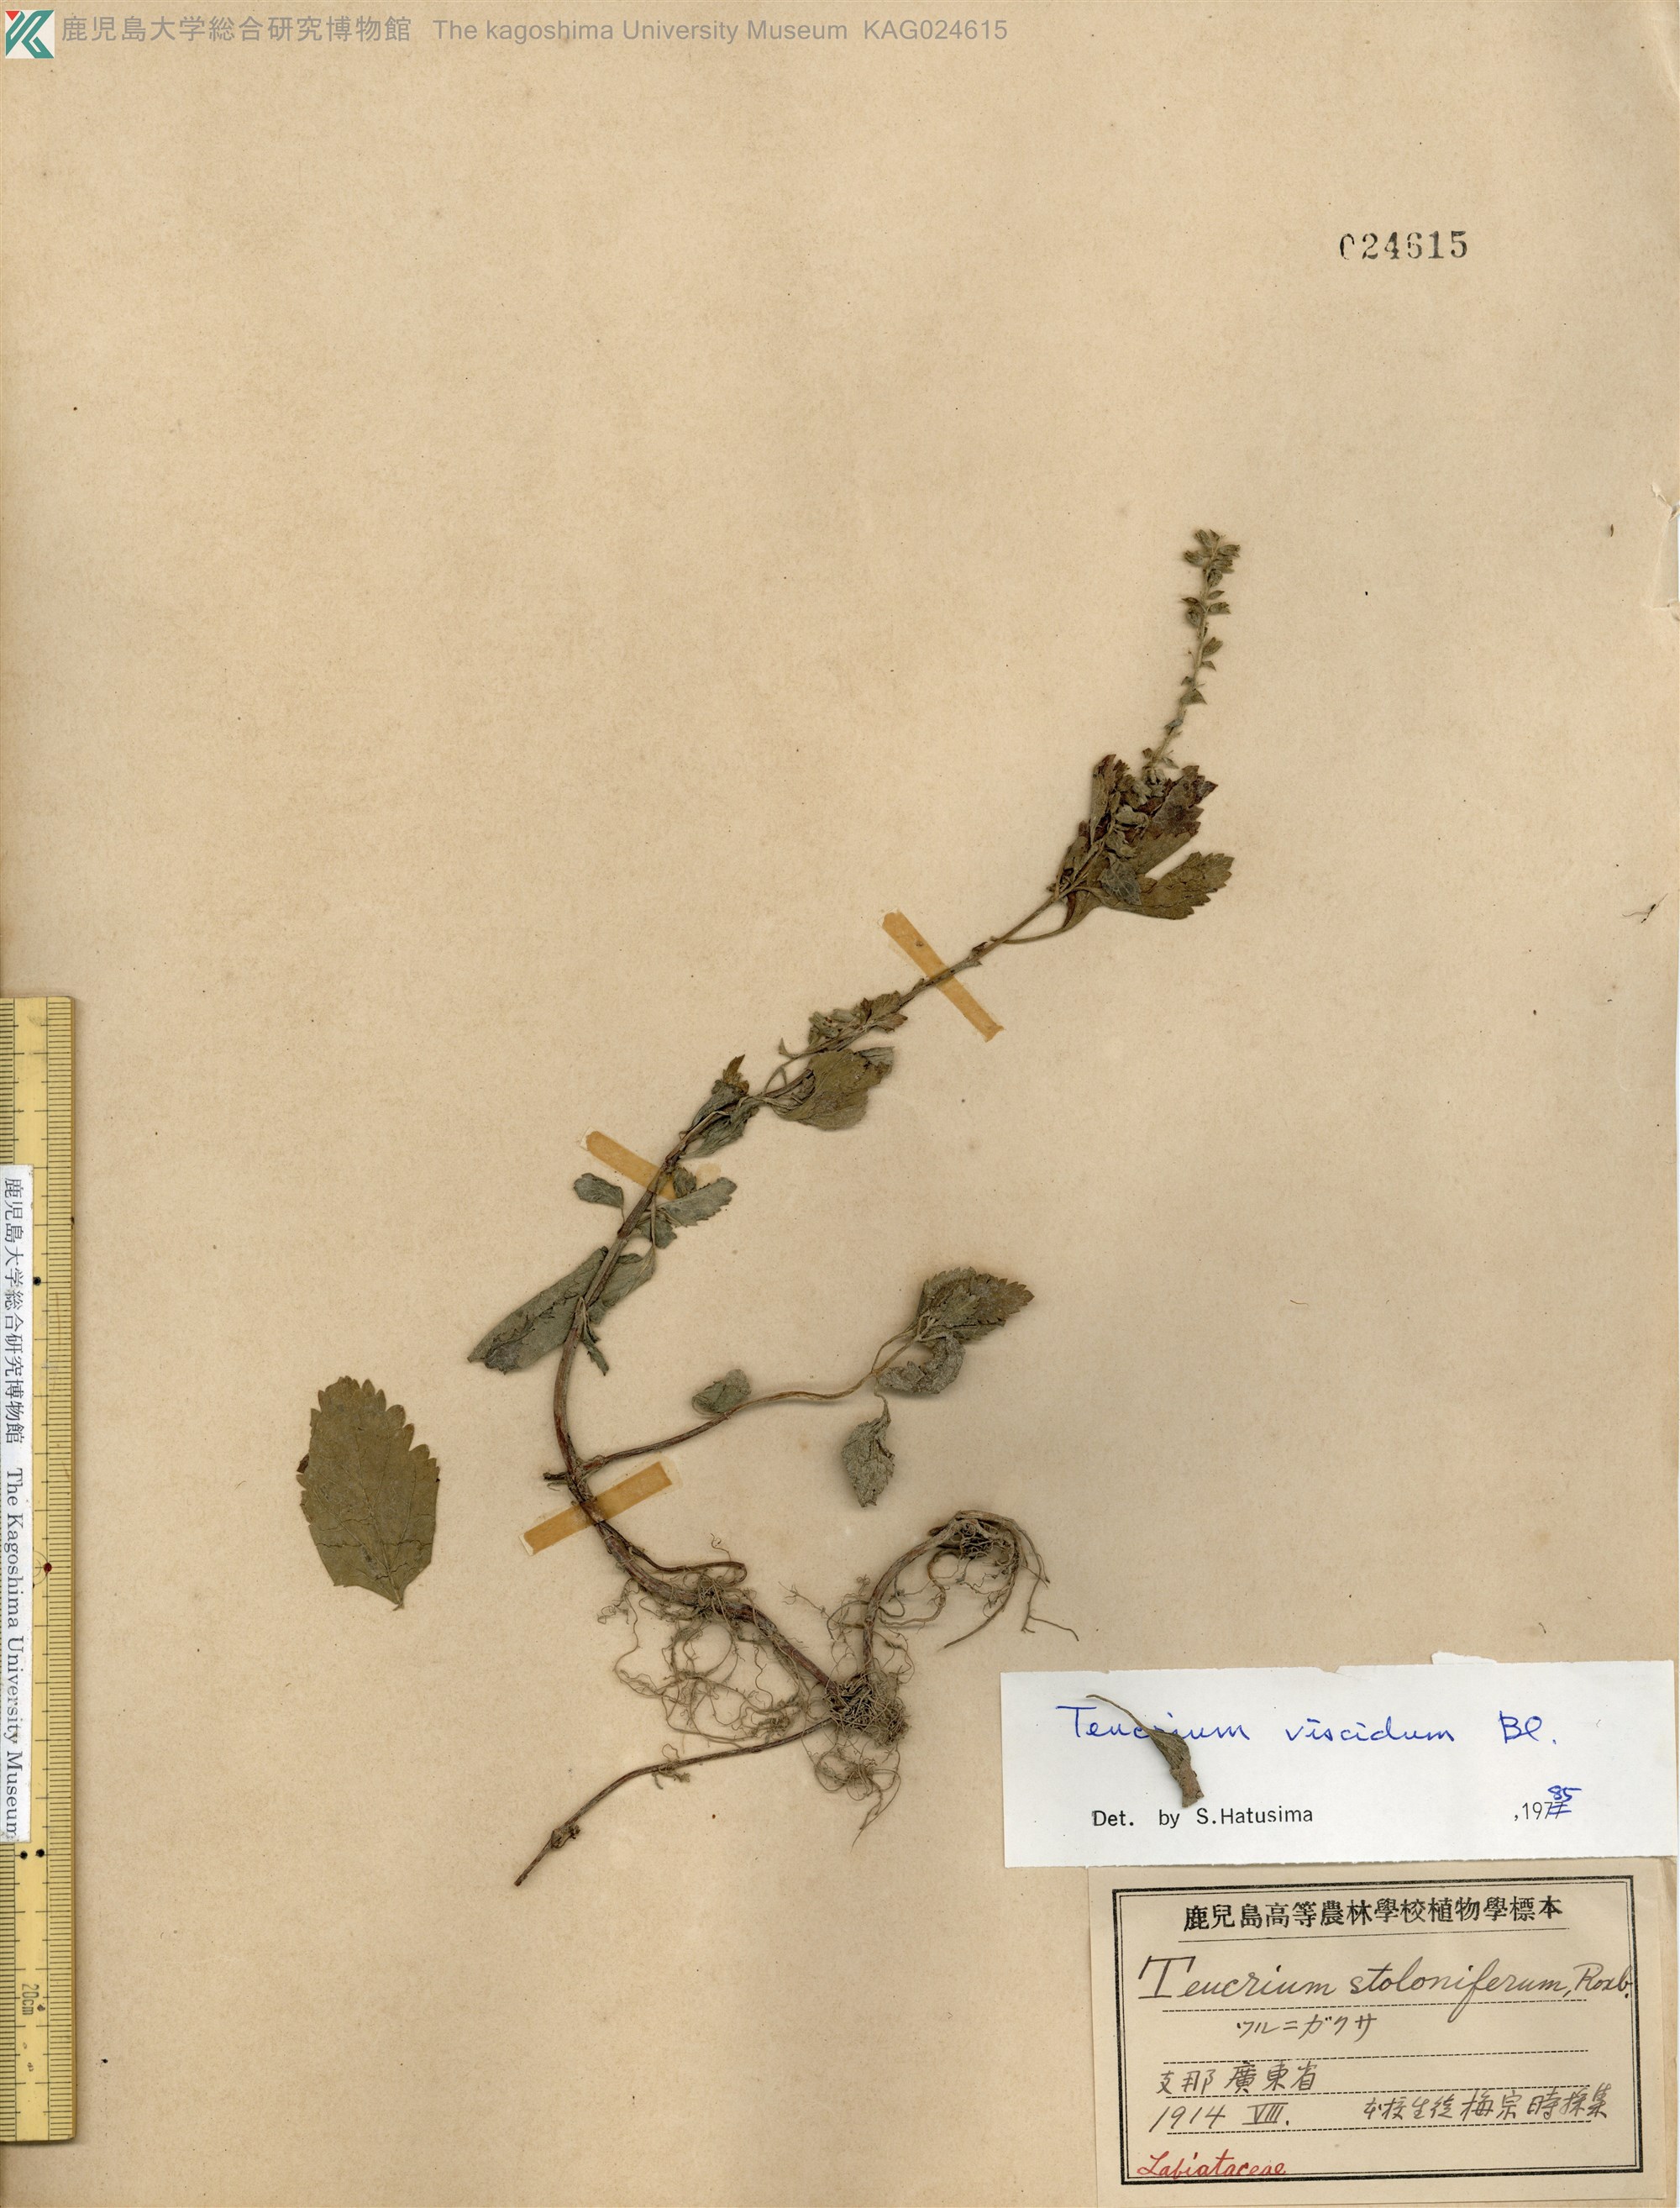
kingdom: Plantae
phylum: Tracheophyta
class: Magnoliopsida
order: Lamiales
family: Lamiaceae
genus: Teucrium
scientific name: Teucrium viscidum
